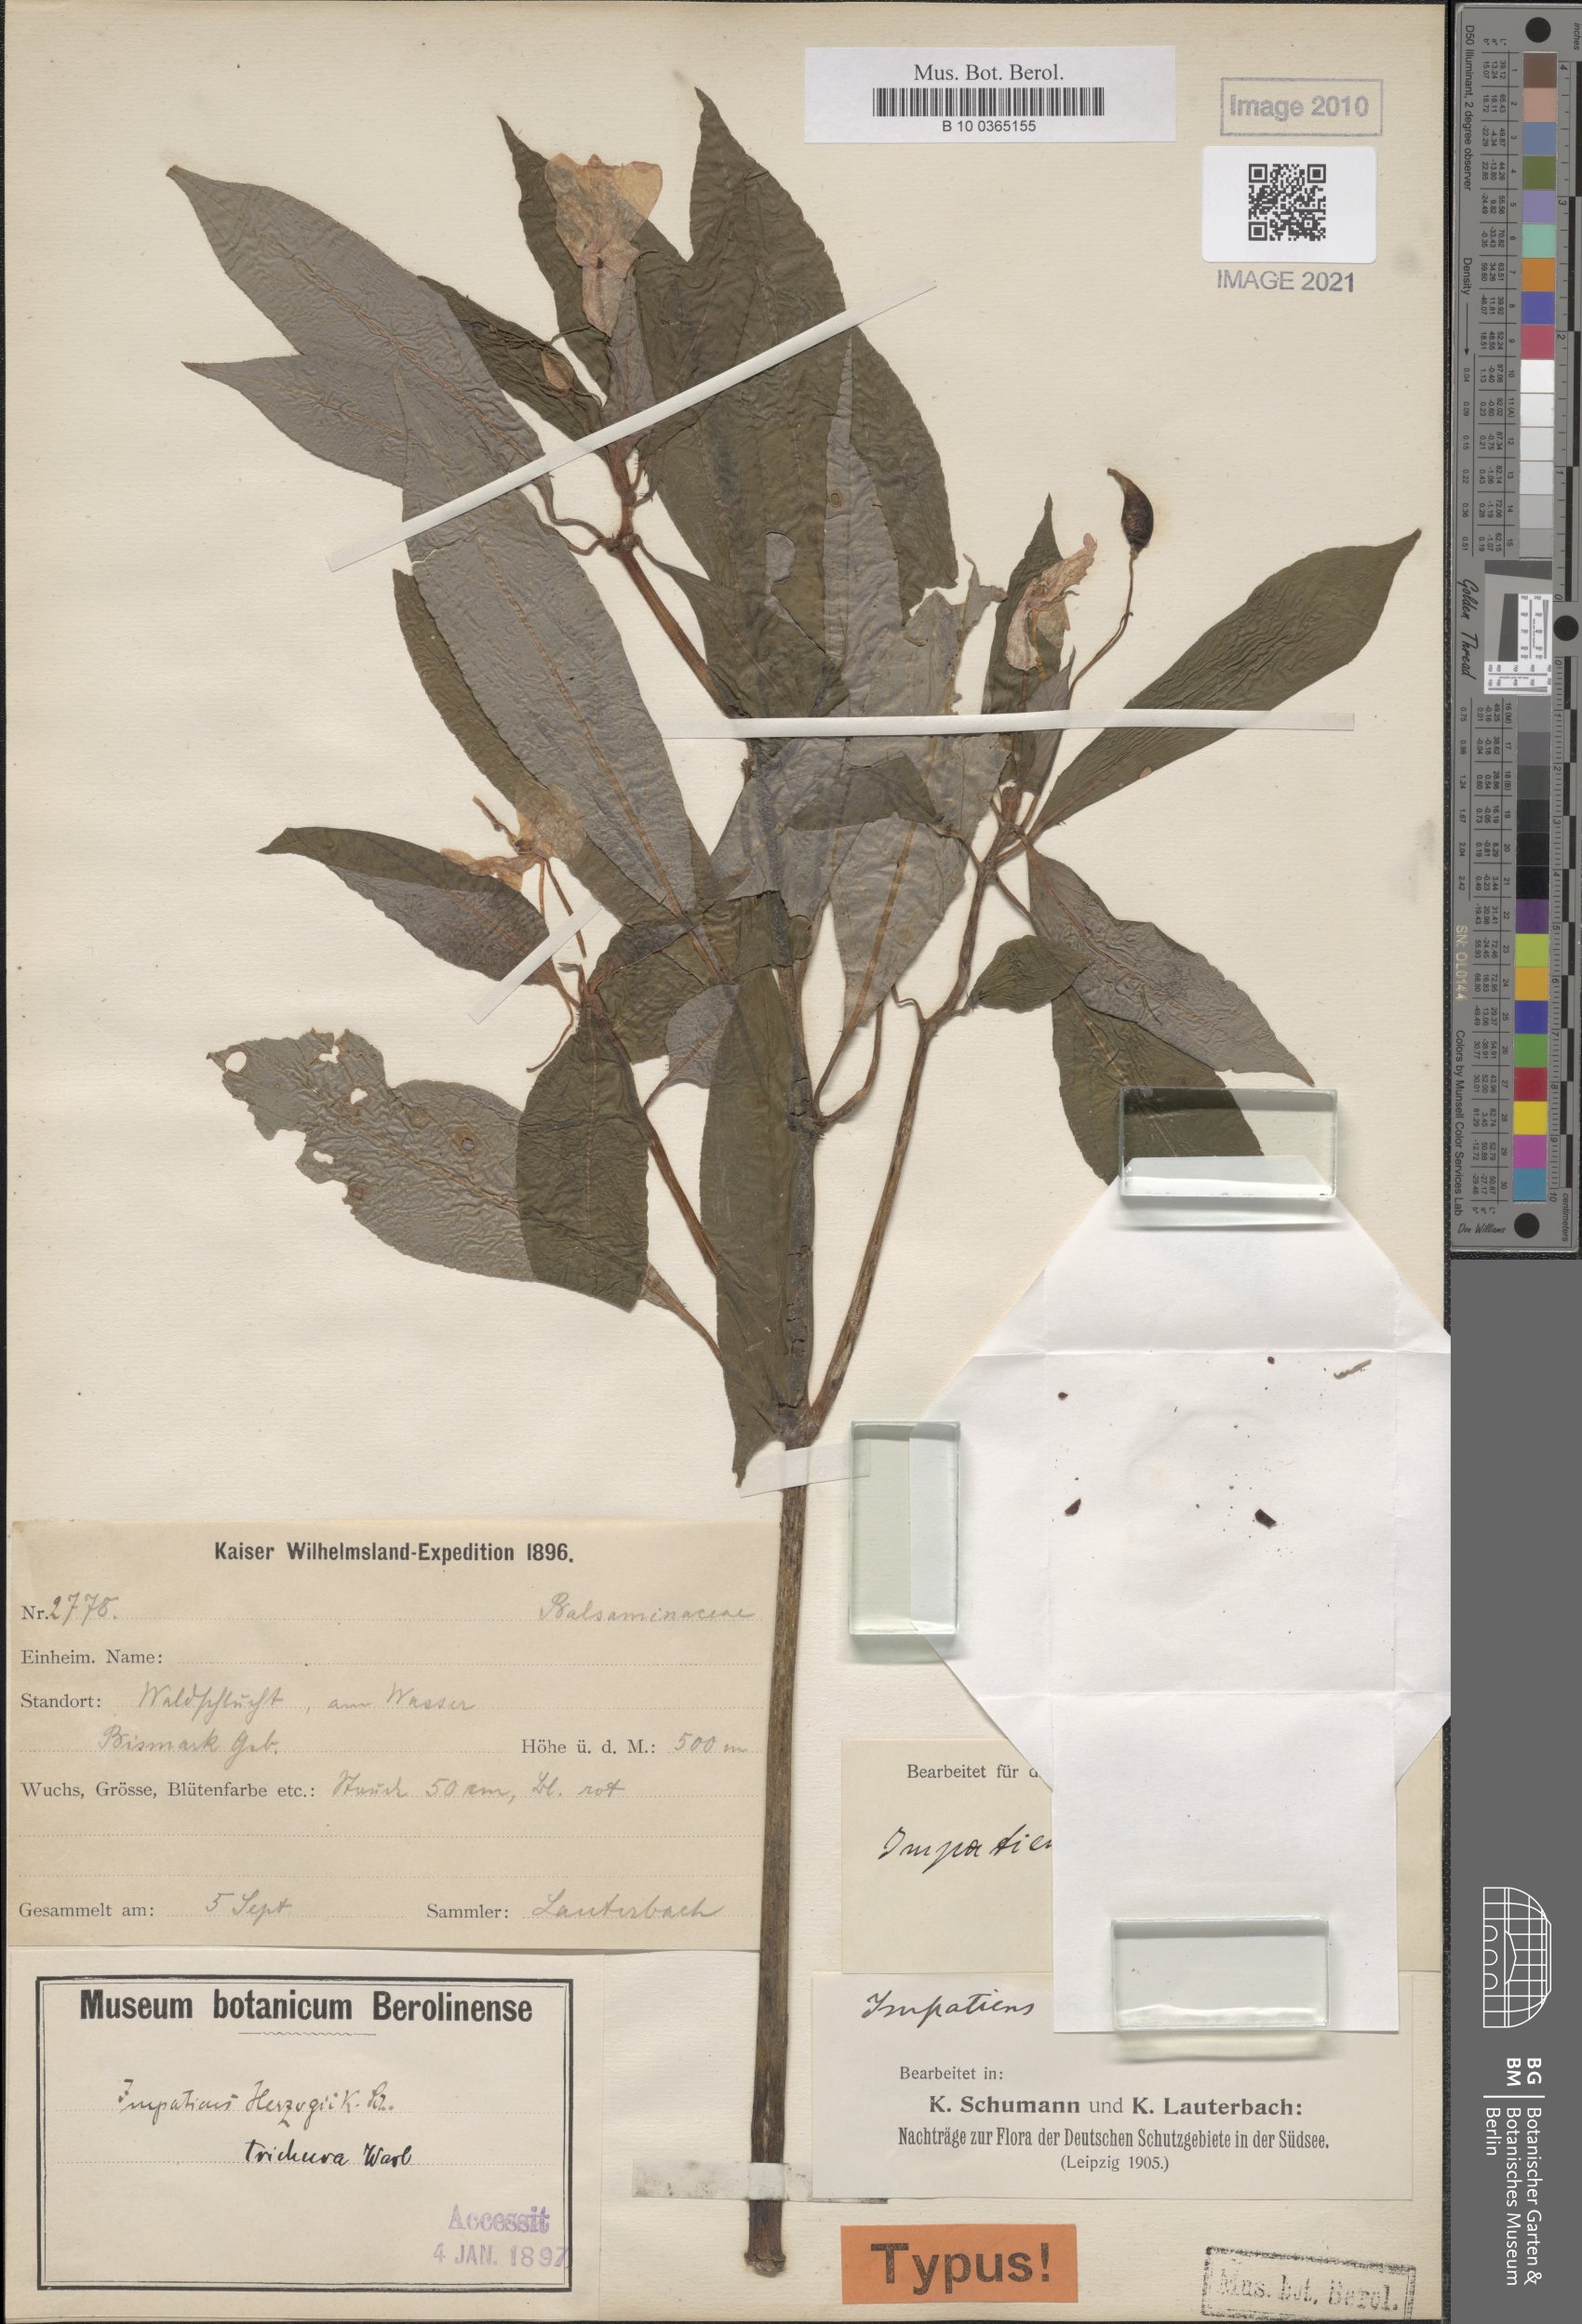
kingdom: Plantae
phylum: Tracheophyta
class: Magnoliopsida
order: Ericales
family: Balsaminaceae
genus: Impatiens
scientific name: Impatiens hawkeri
